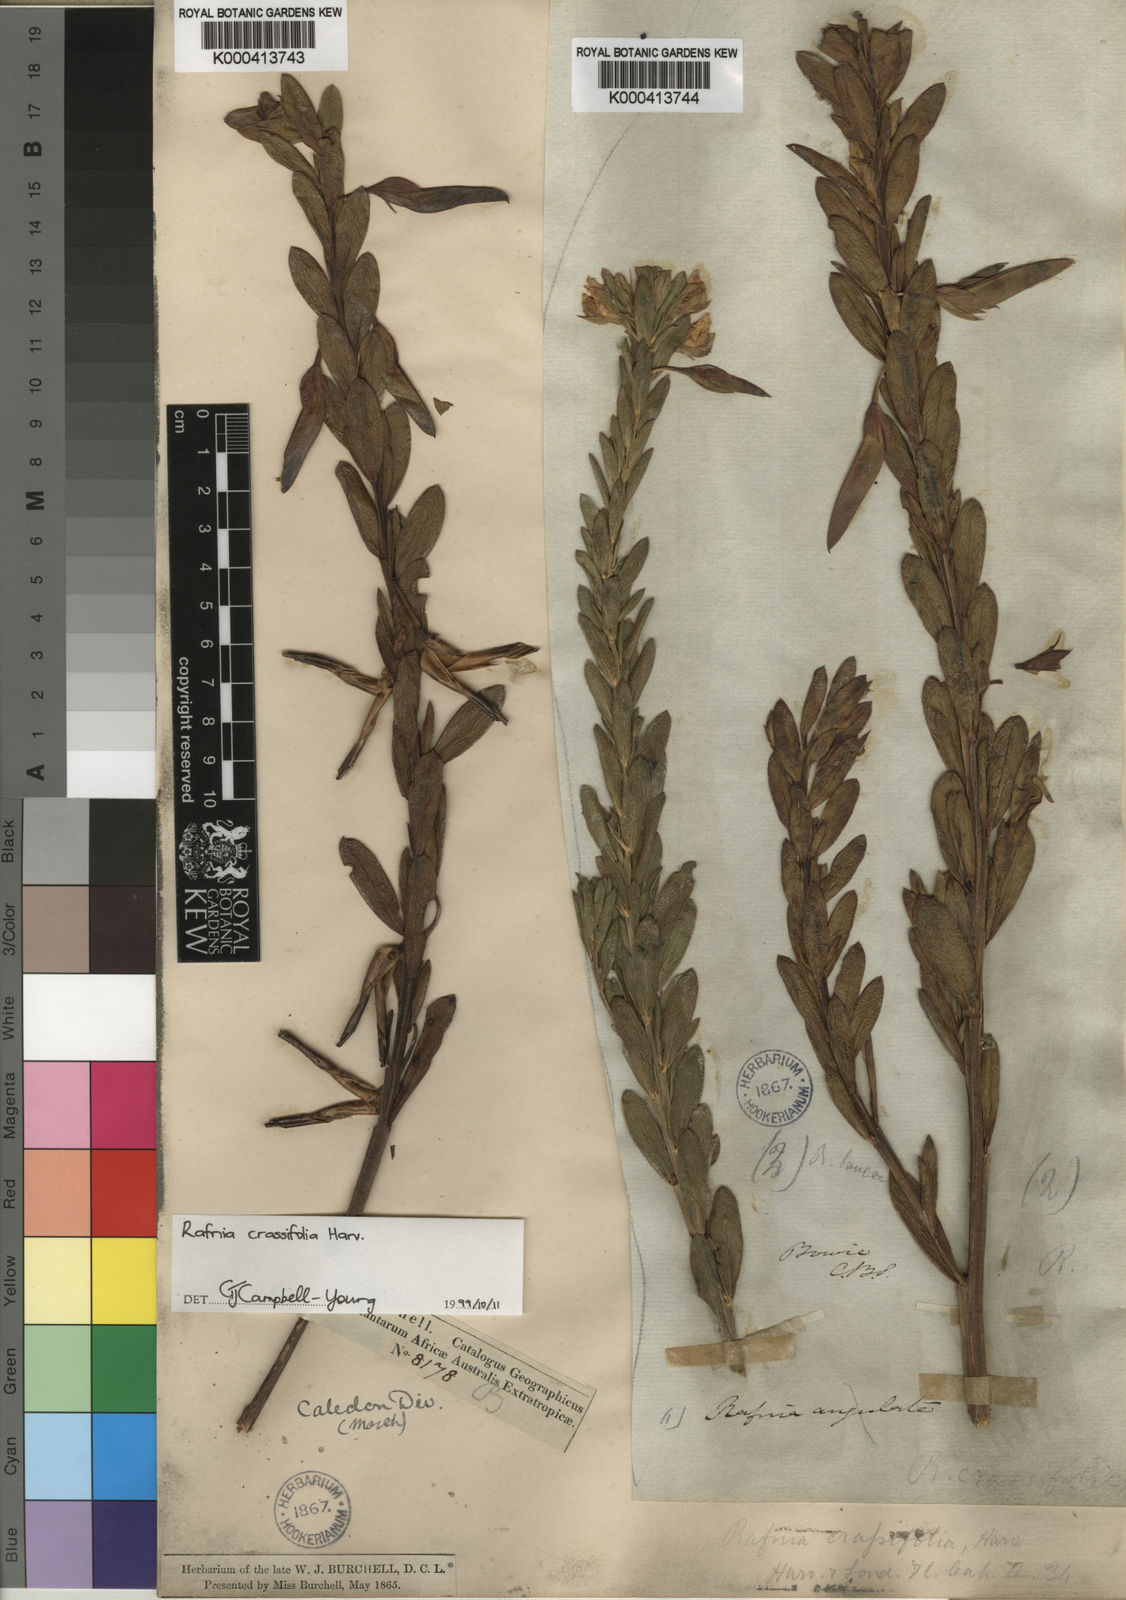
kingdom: Plantae
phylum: Tracheophyta
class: Magnoliopsida
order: Fabales
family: Fabaceae
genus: Rafnia
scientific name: Rafnia crassifolia
